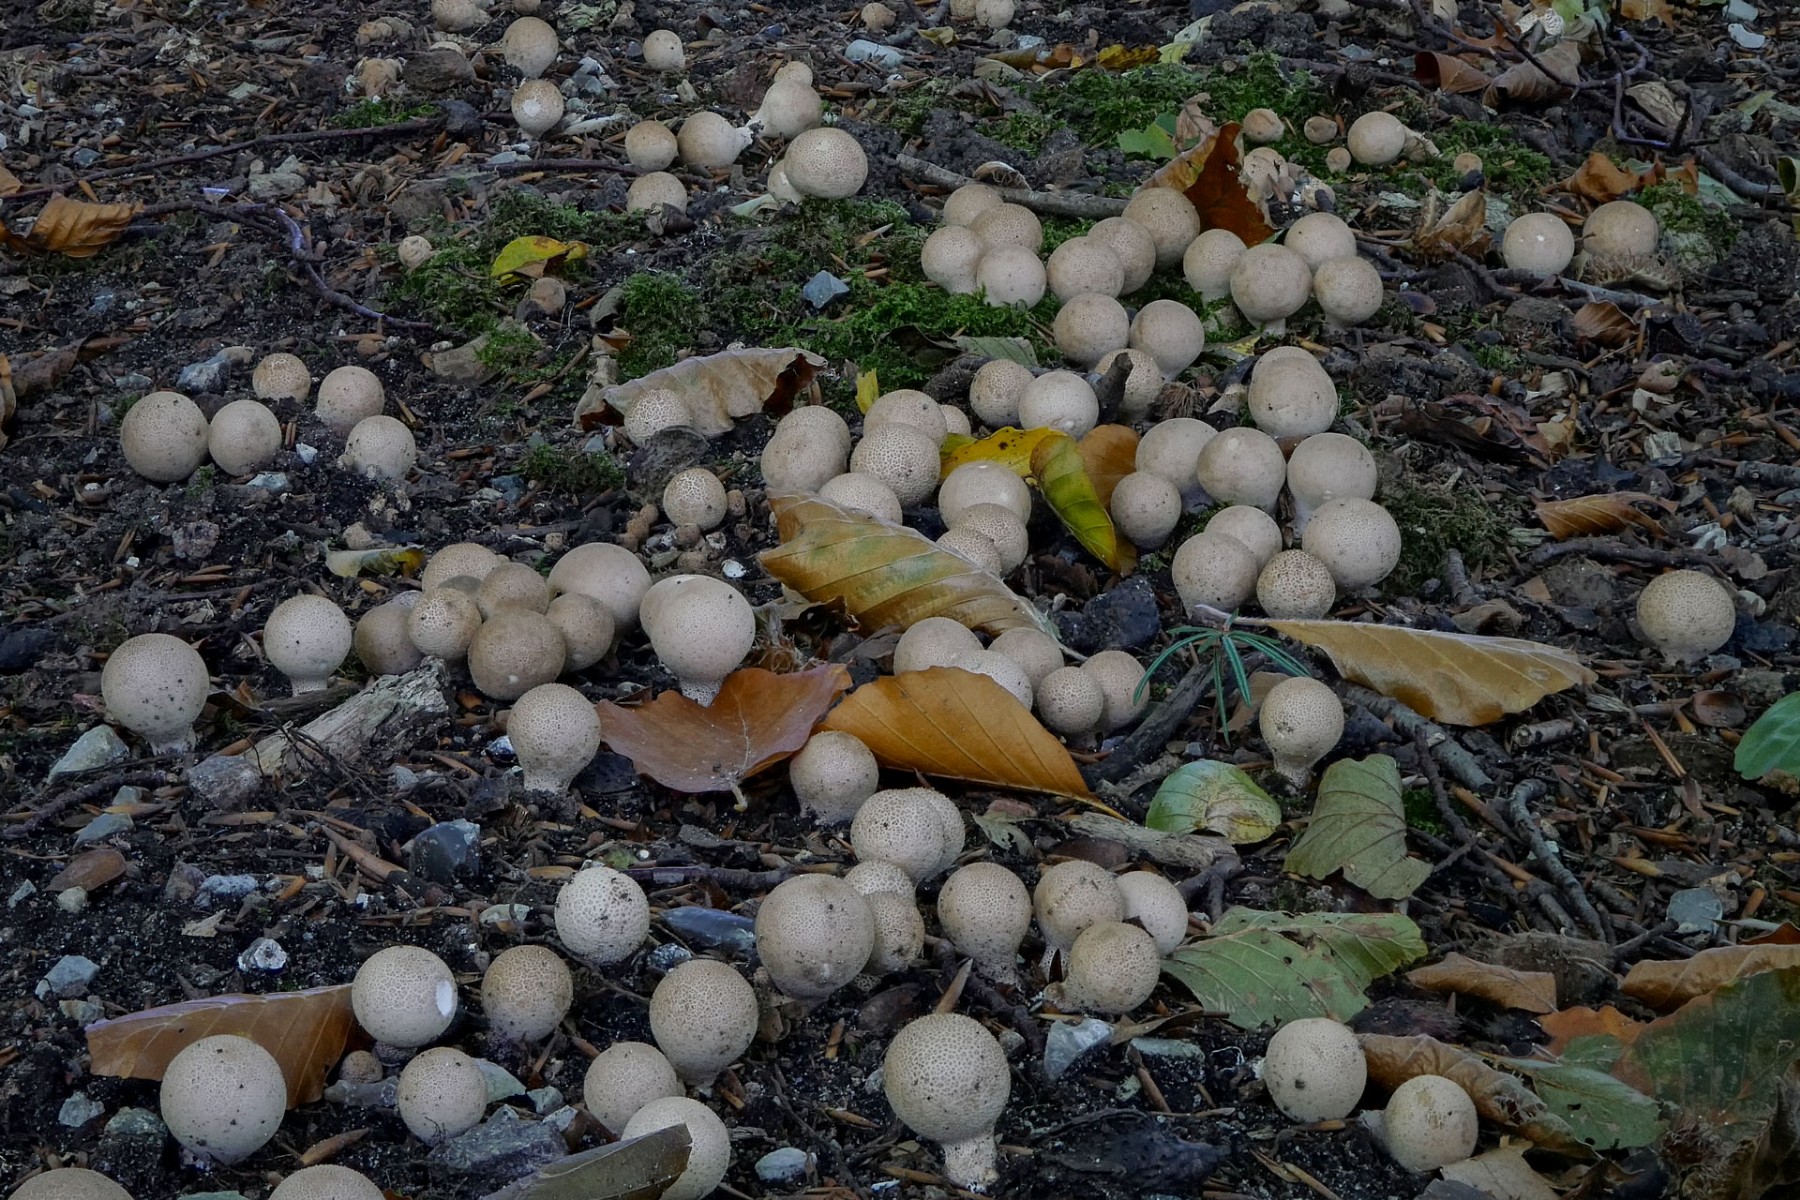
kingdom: Fungi
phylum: Basidiomycota
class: Agaricomycetes
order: Agaricales
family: Lycoperdaceae
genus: Apioperdon
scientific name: Apioperdon pyriforme
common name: pære-støvbold
